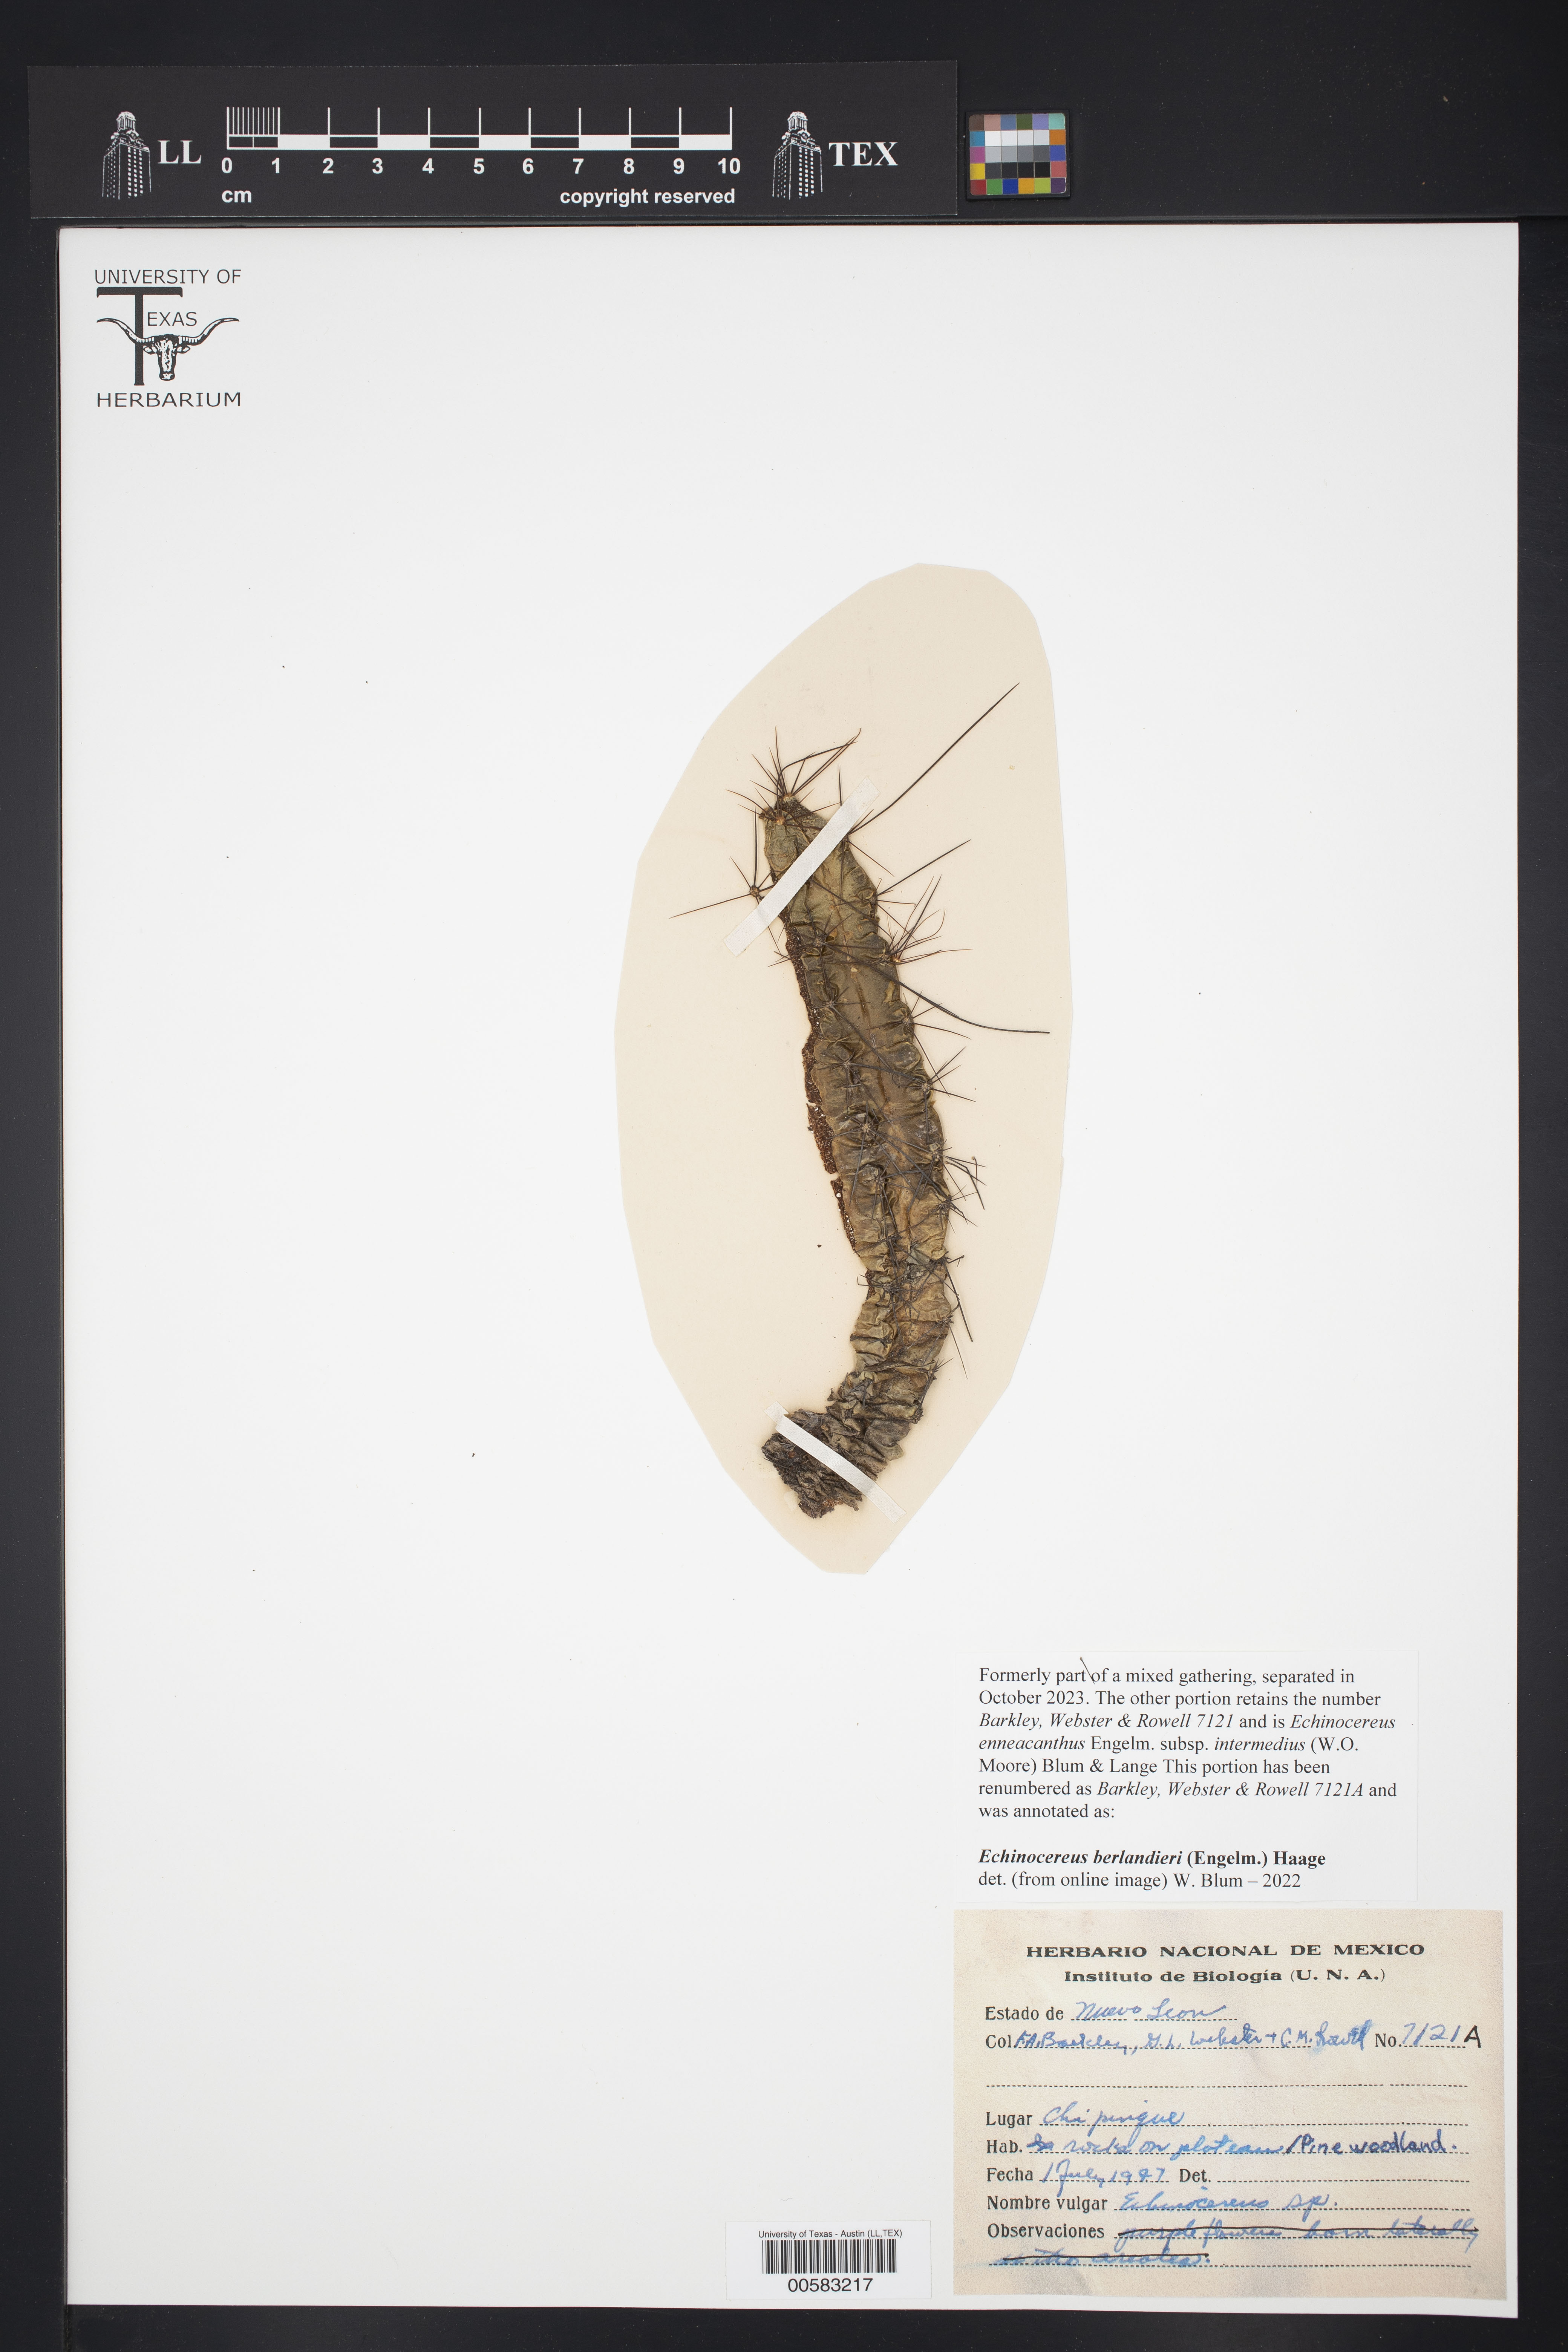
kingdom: Plantae
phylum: Tracheophyta
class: Magnoliopsida
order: Caryophyllales
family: Cactaceae
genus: Echinocereus
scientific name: Echinocereus berlandieri
